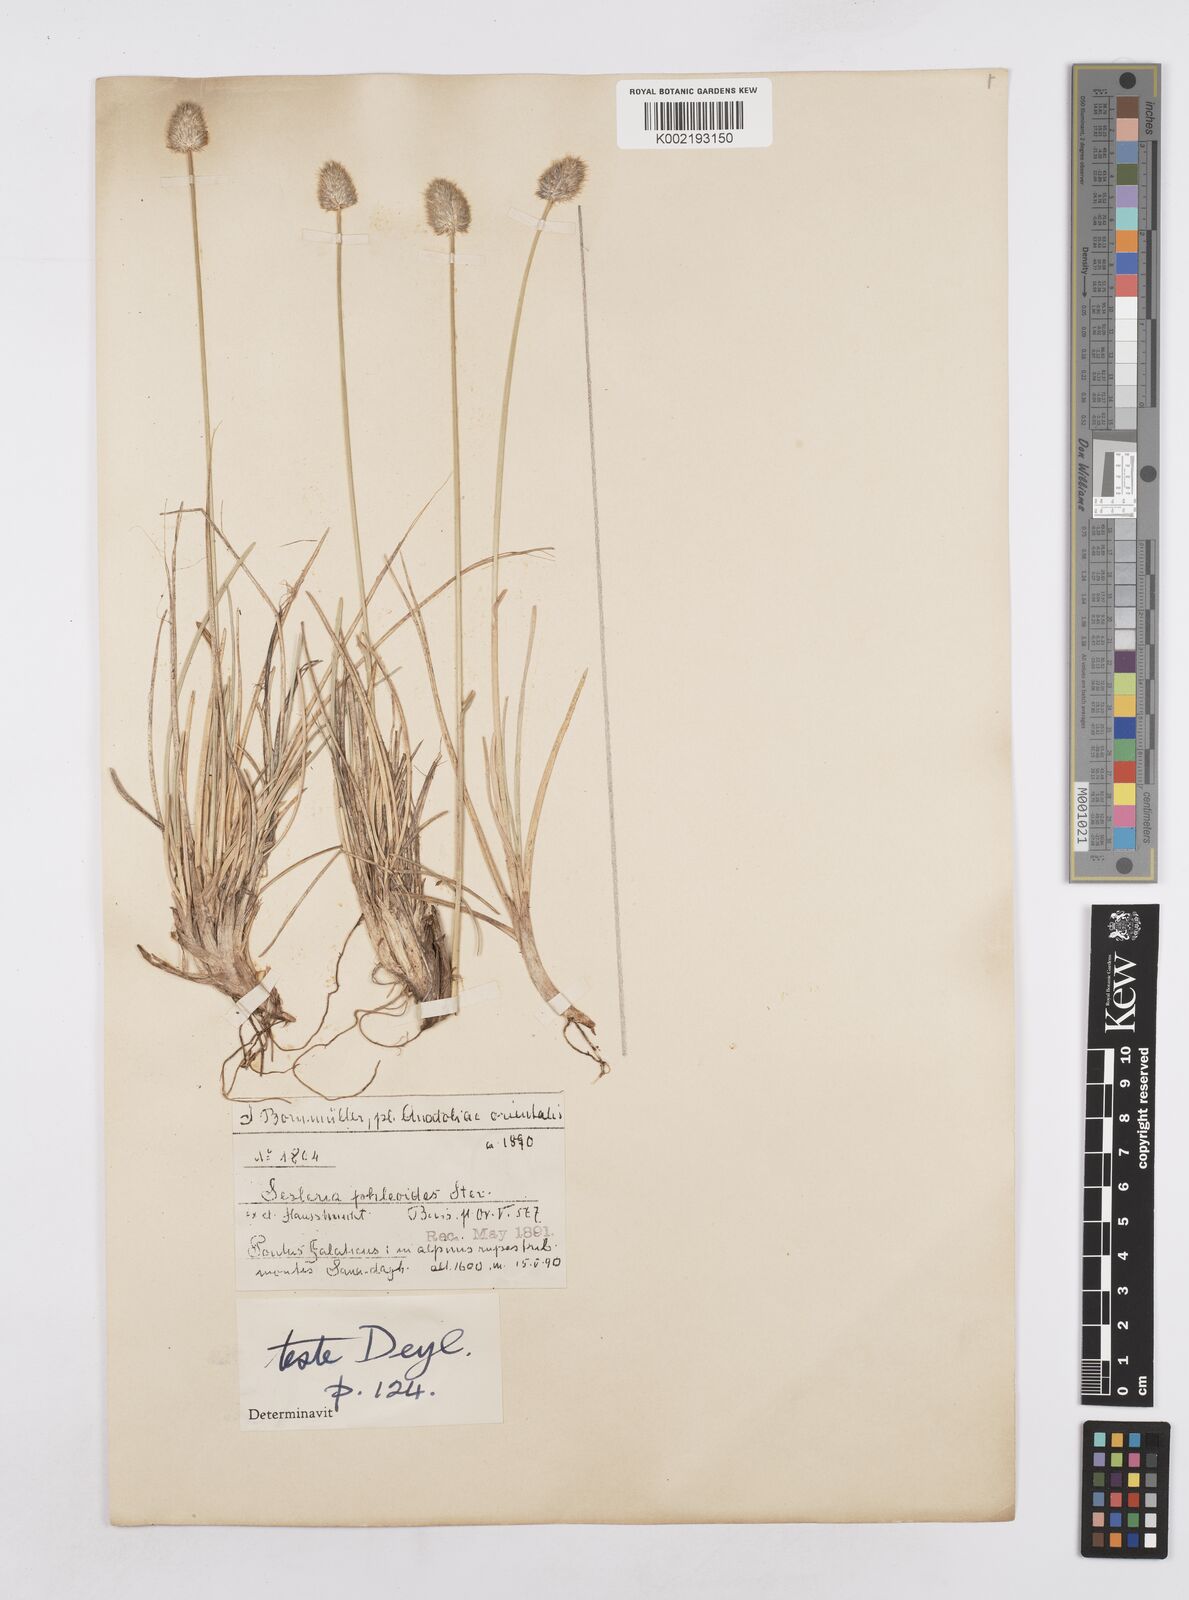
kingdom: Plantae
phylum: Tracheophyta
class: Liliopsida
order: Poales
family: Poaceae
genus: Sesleria
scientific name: Sesleria phleoides
